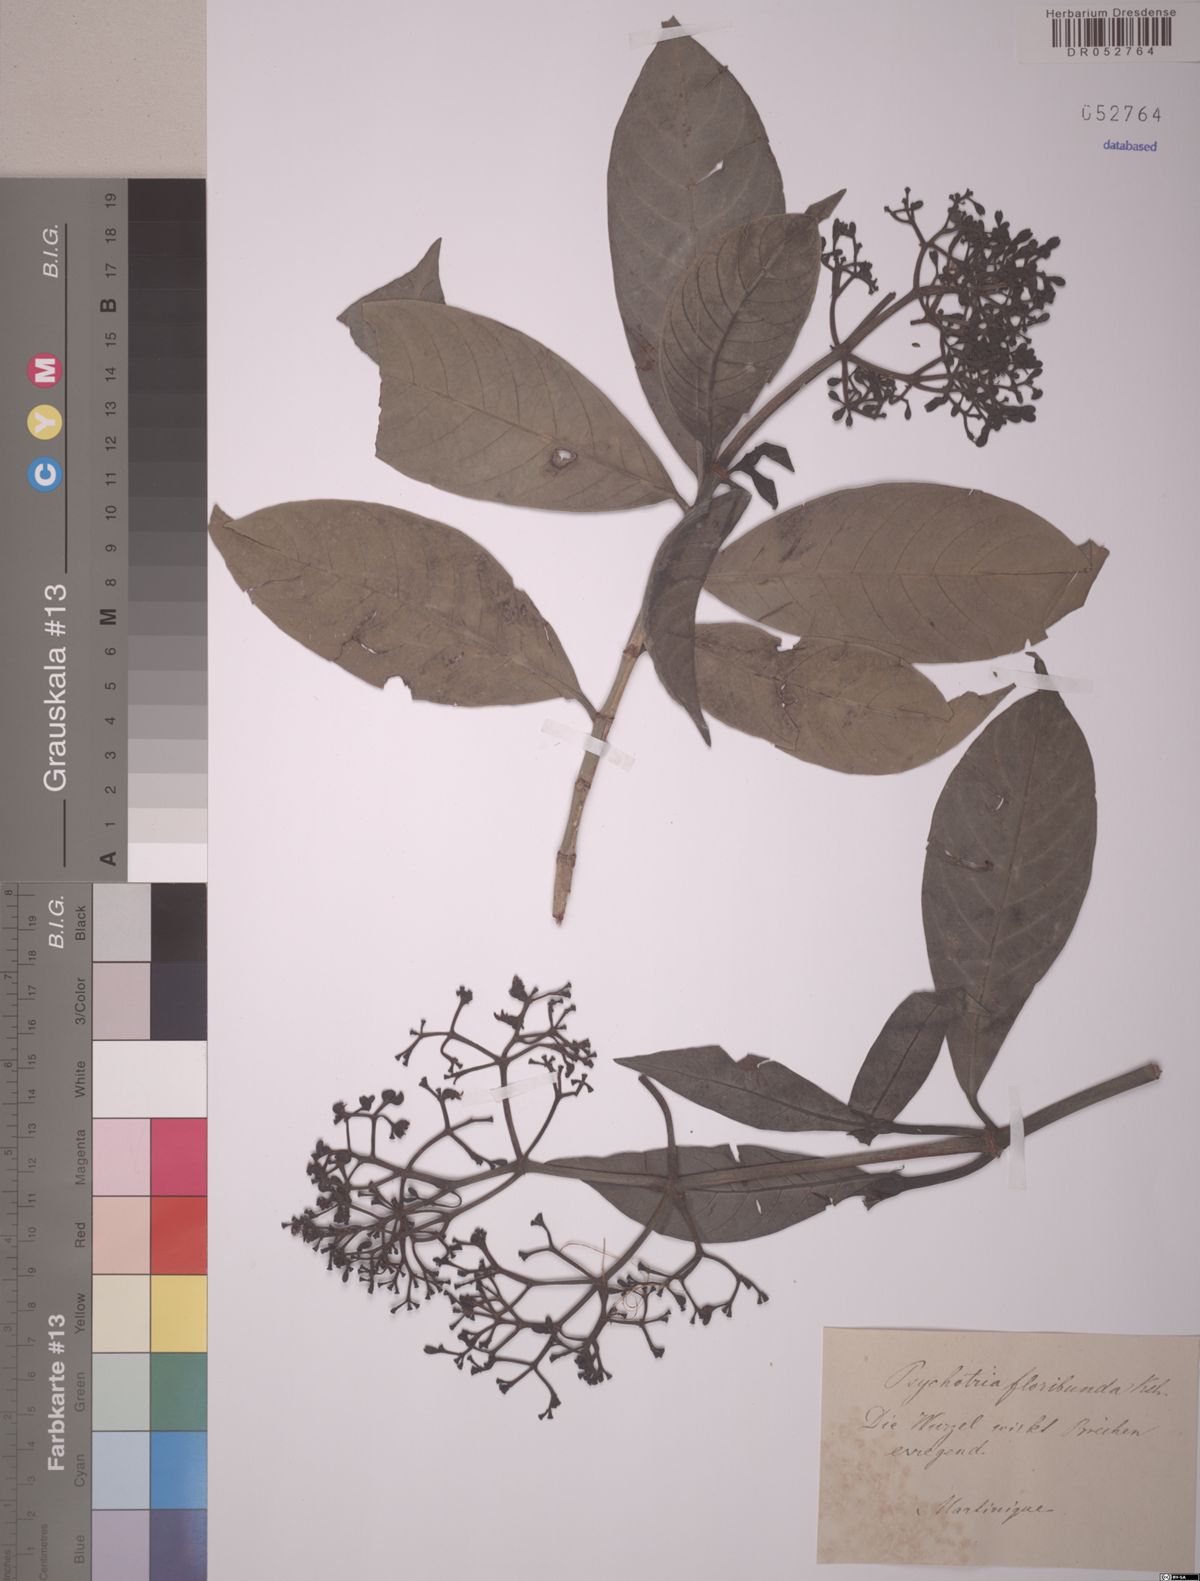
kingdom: Plantae
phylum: Tracheophyta
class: Magnoliopsida
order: Gentianales
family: Rubiaceae
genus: Psychotria
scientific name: Psychotria carthagenensis
